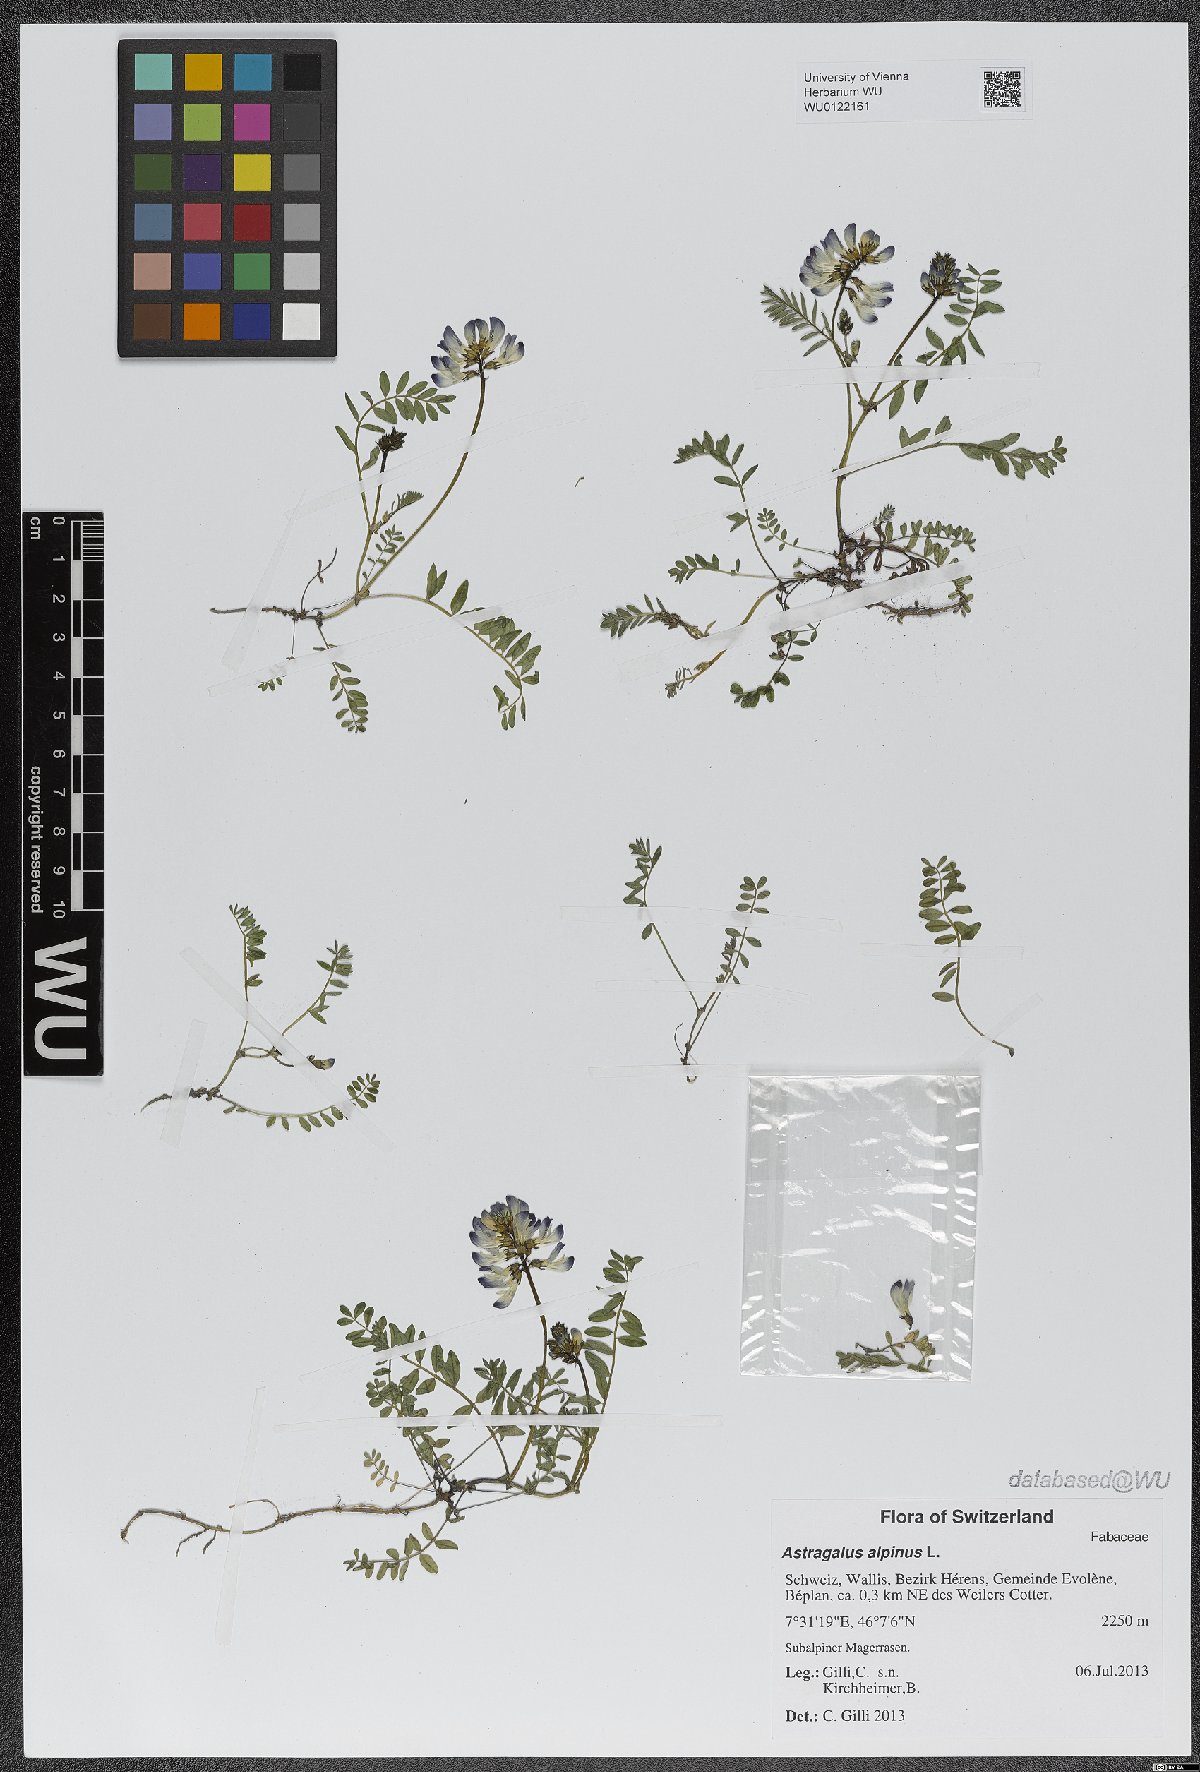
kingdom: Plantae
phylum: Tracheophyta
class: Magnoliopsida
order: Fabales
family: Fabaceae
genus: Astragalus
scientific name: Astragalus alpinus
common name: Alpine milk-vetch
